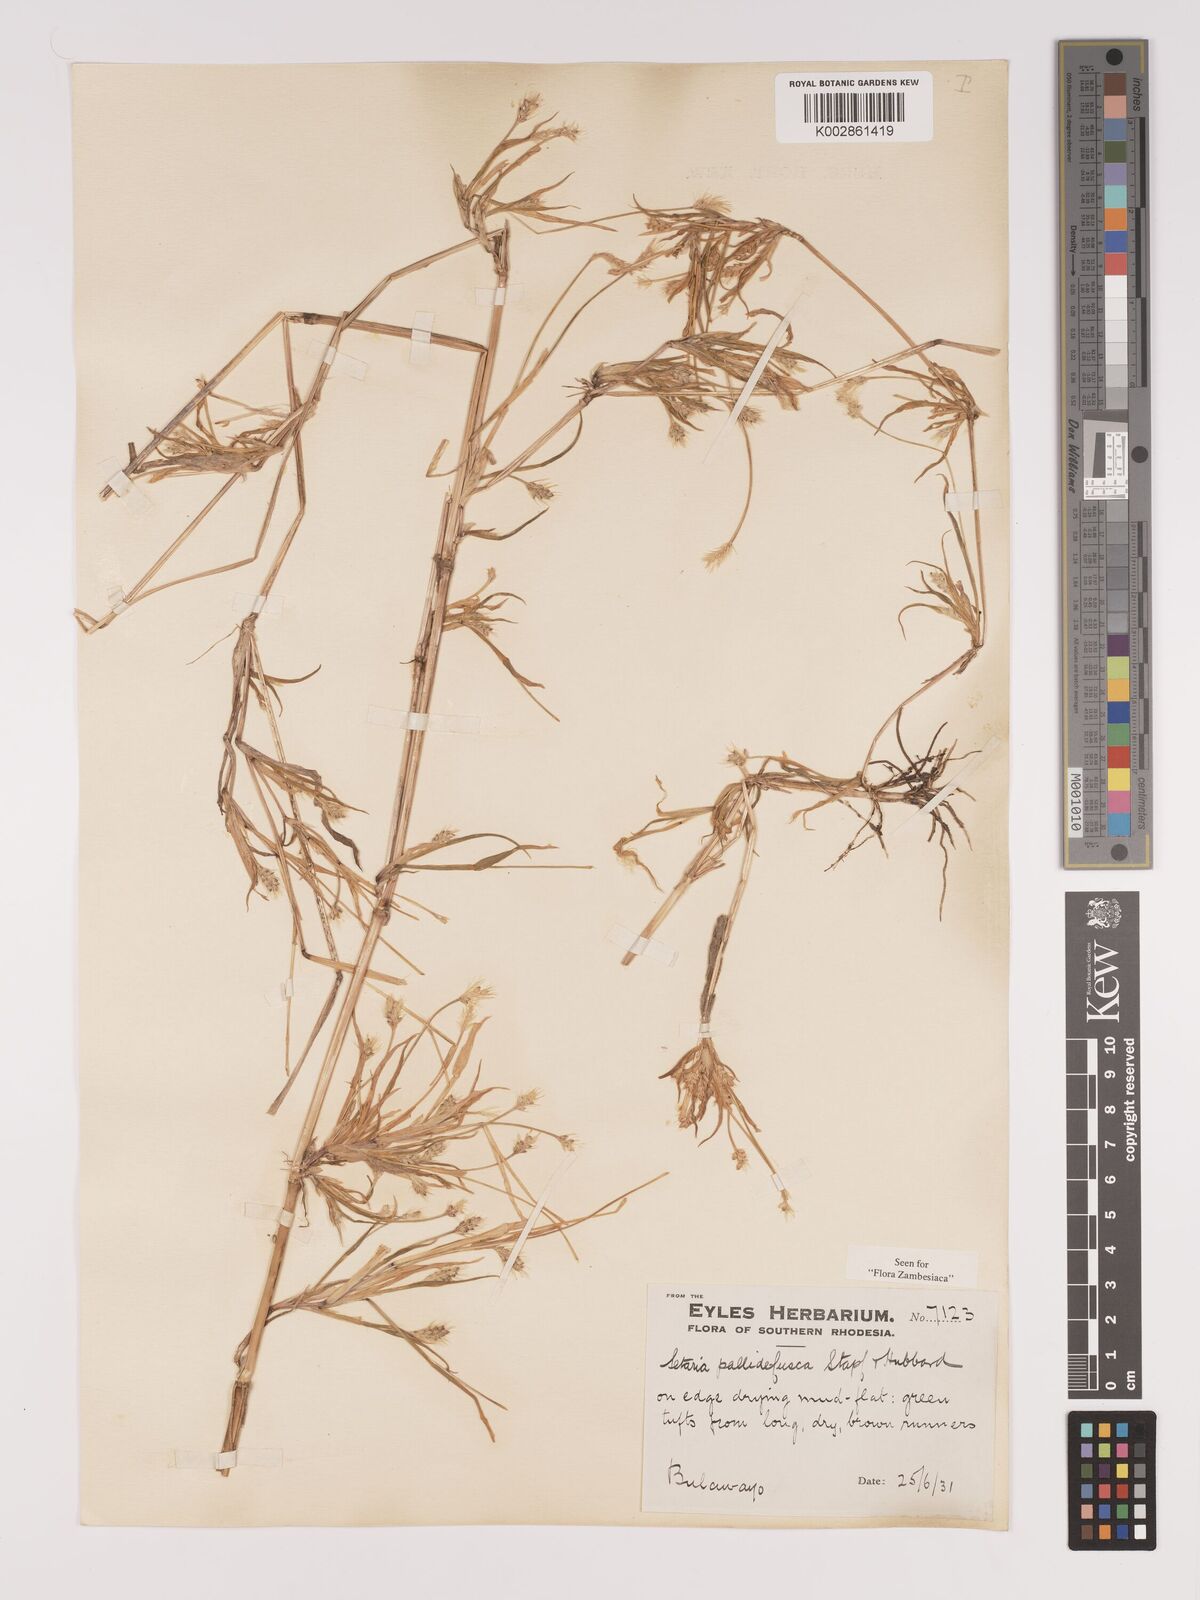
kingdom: Plantae
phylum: Tracheophyta
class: Liliopsida
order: Poales
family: Poaceae
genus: Setaria
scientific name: Setaria pumila
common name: Yellow bristle-grass
